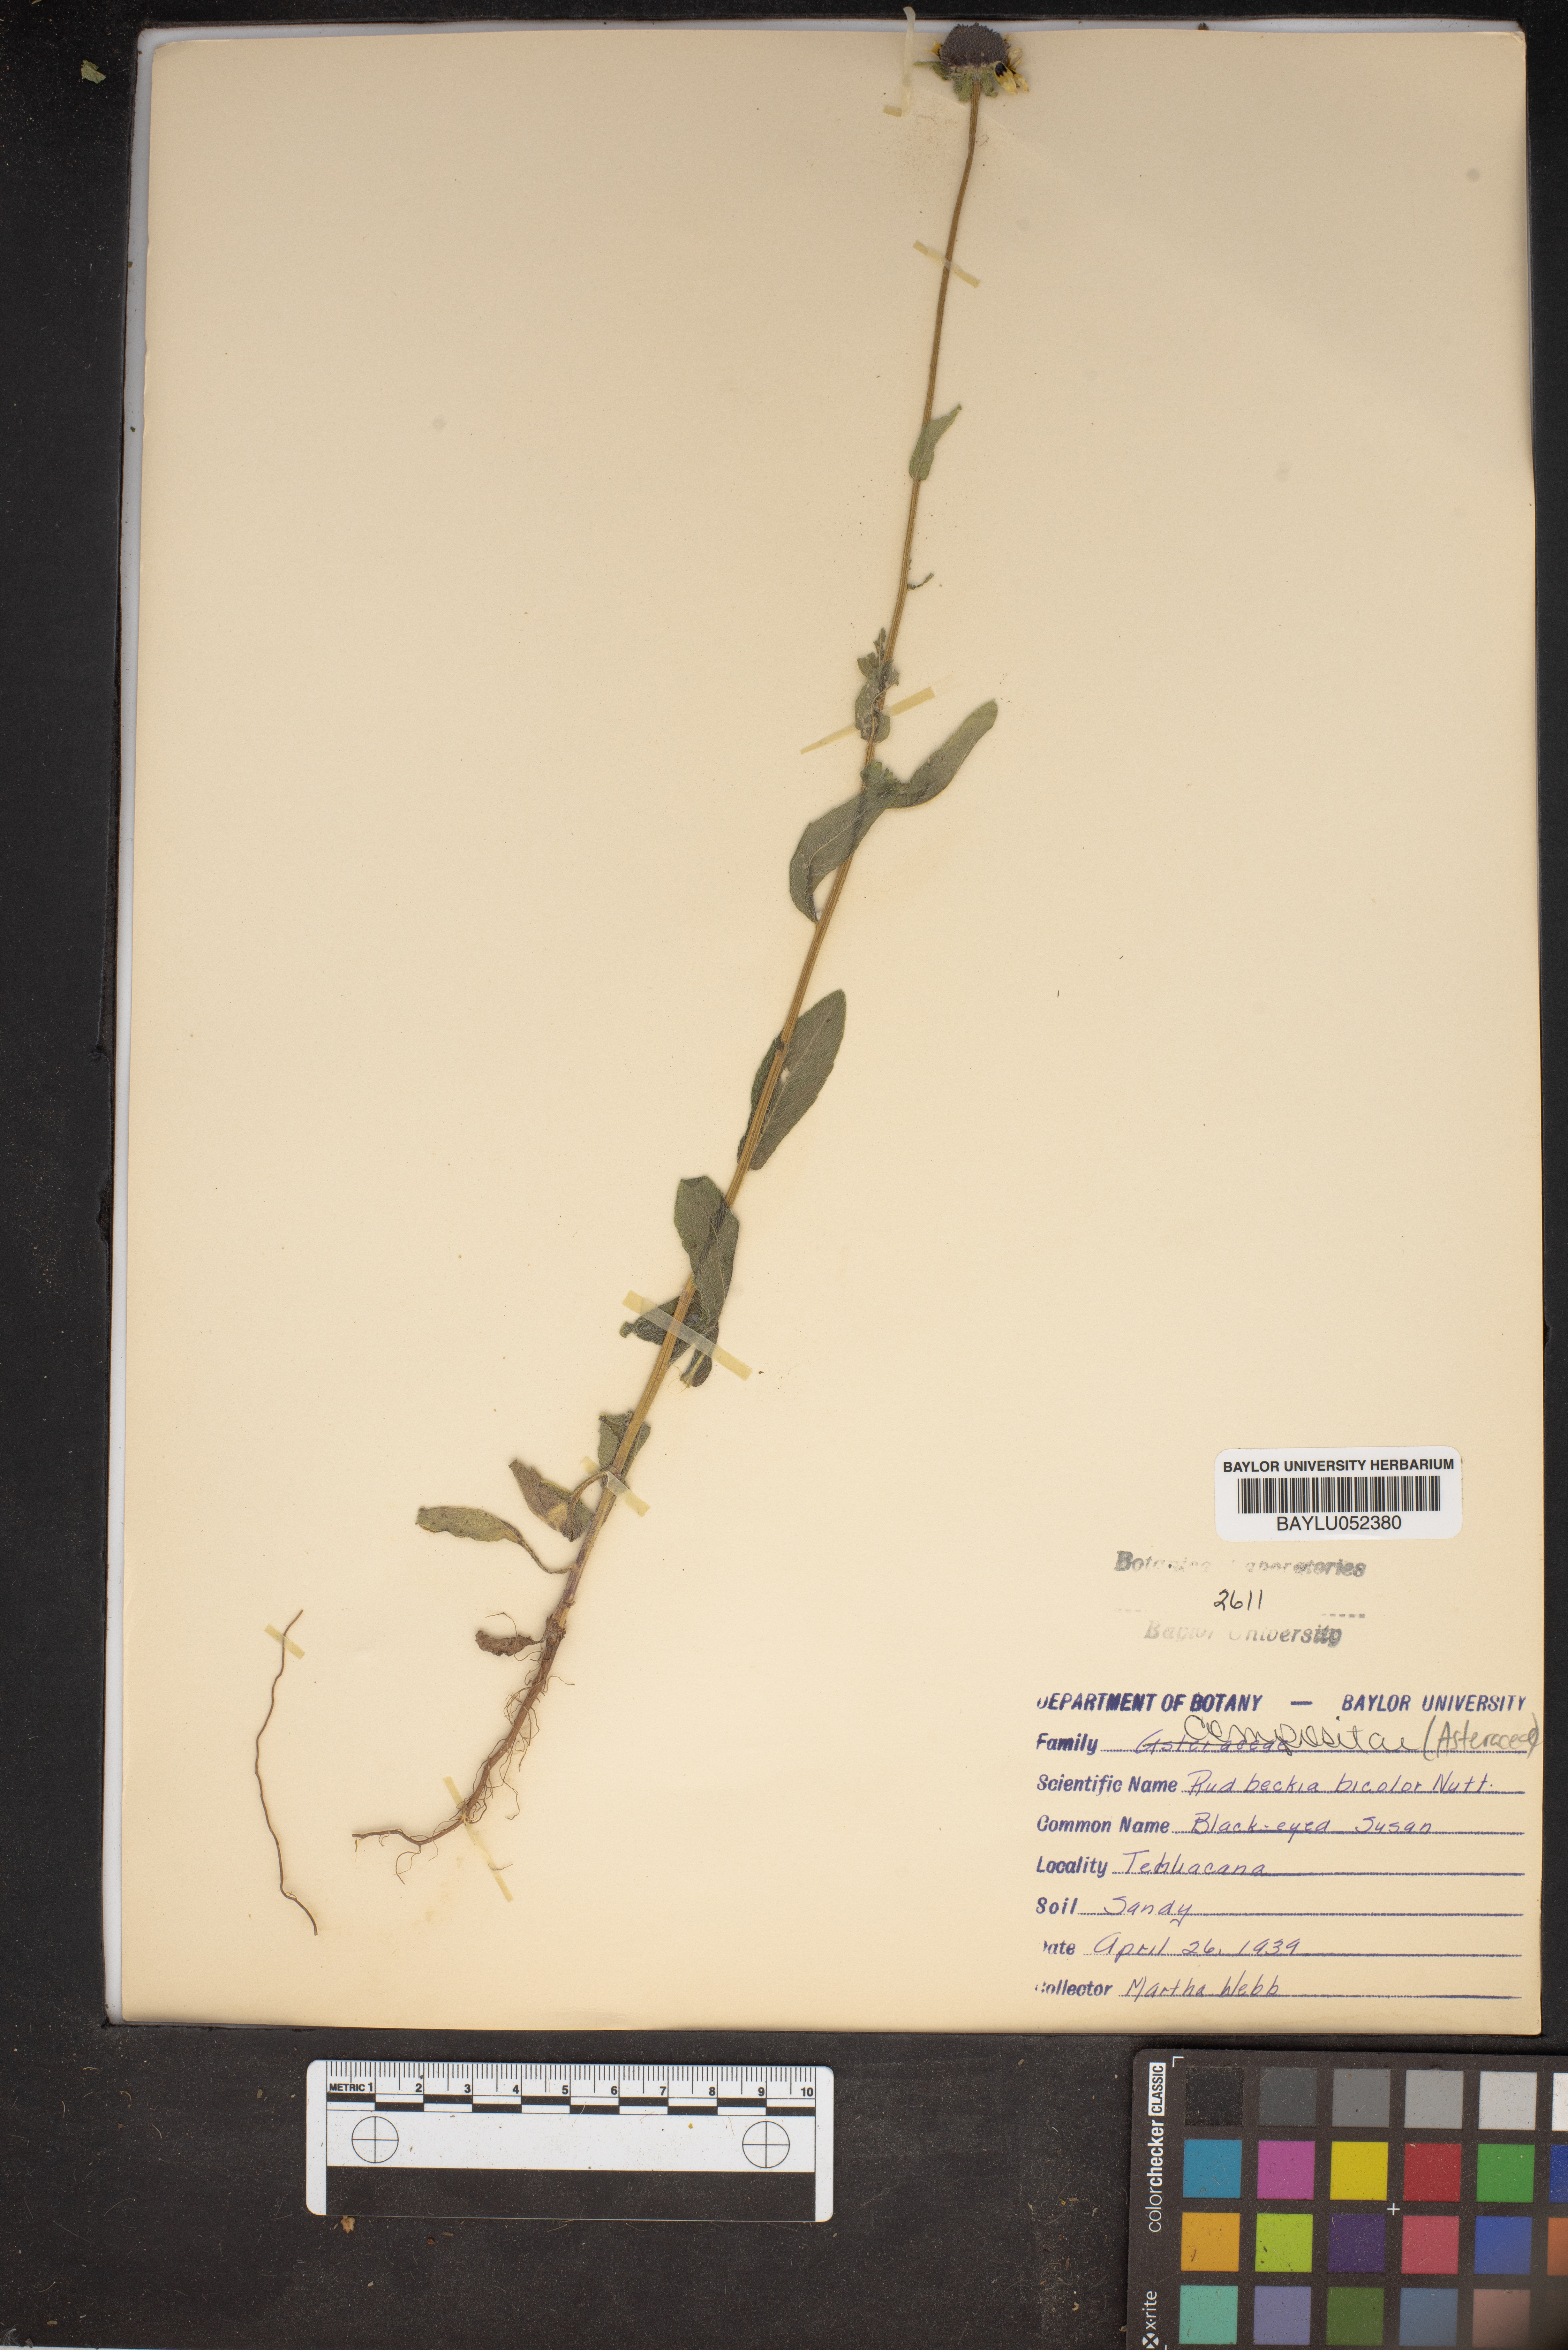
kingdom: Plantae
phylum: Tracheophyta
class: Magnoliopsida
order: Asterales
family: Asteraceae
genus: Rudbeckia
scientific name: Rudbeckia hirta
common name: Black-eyed-susan
